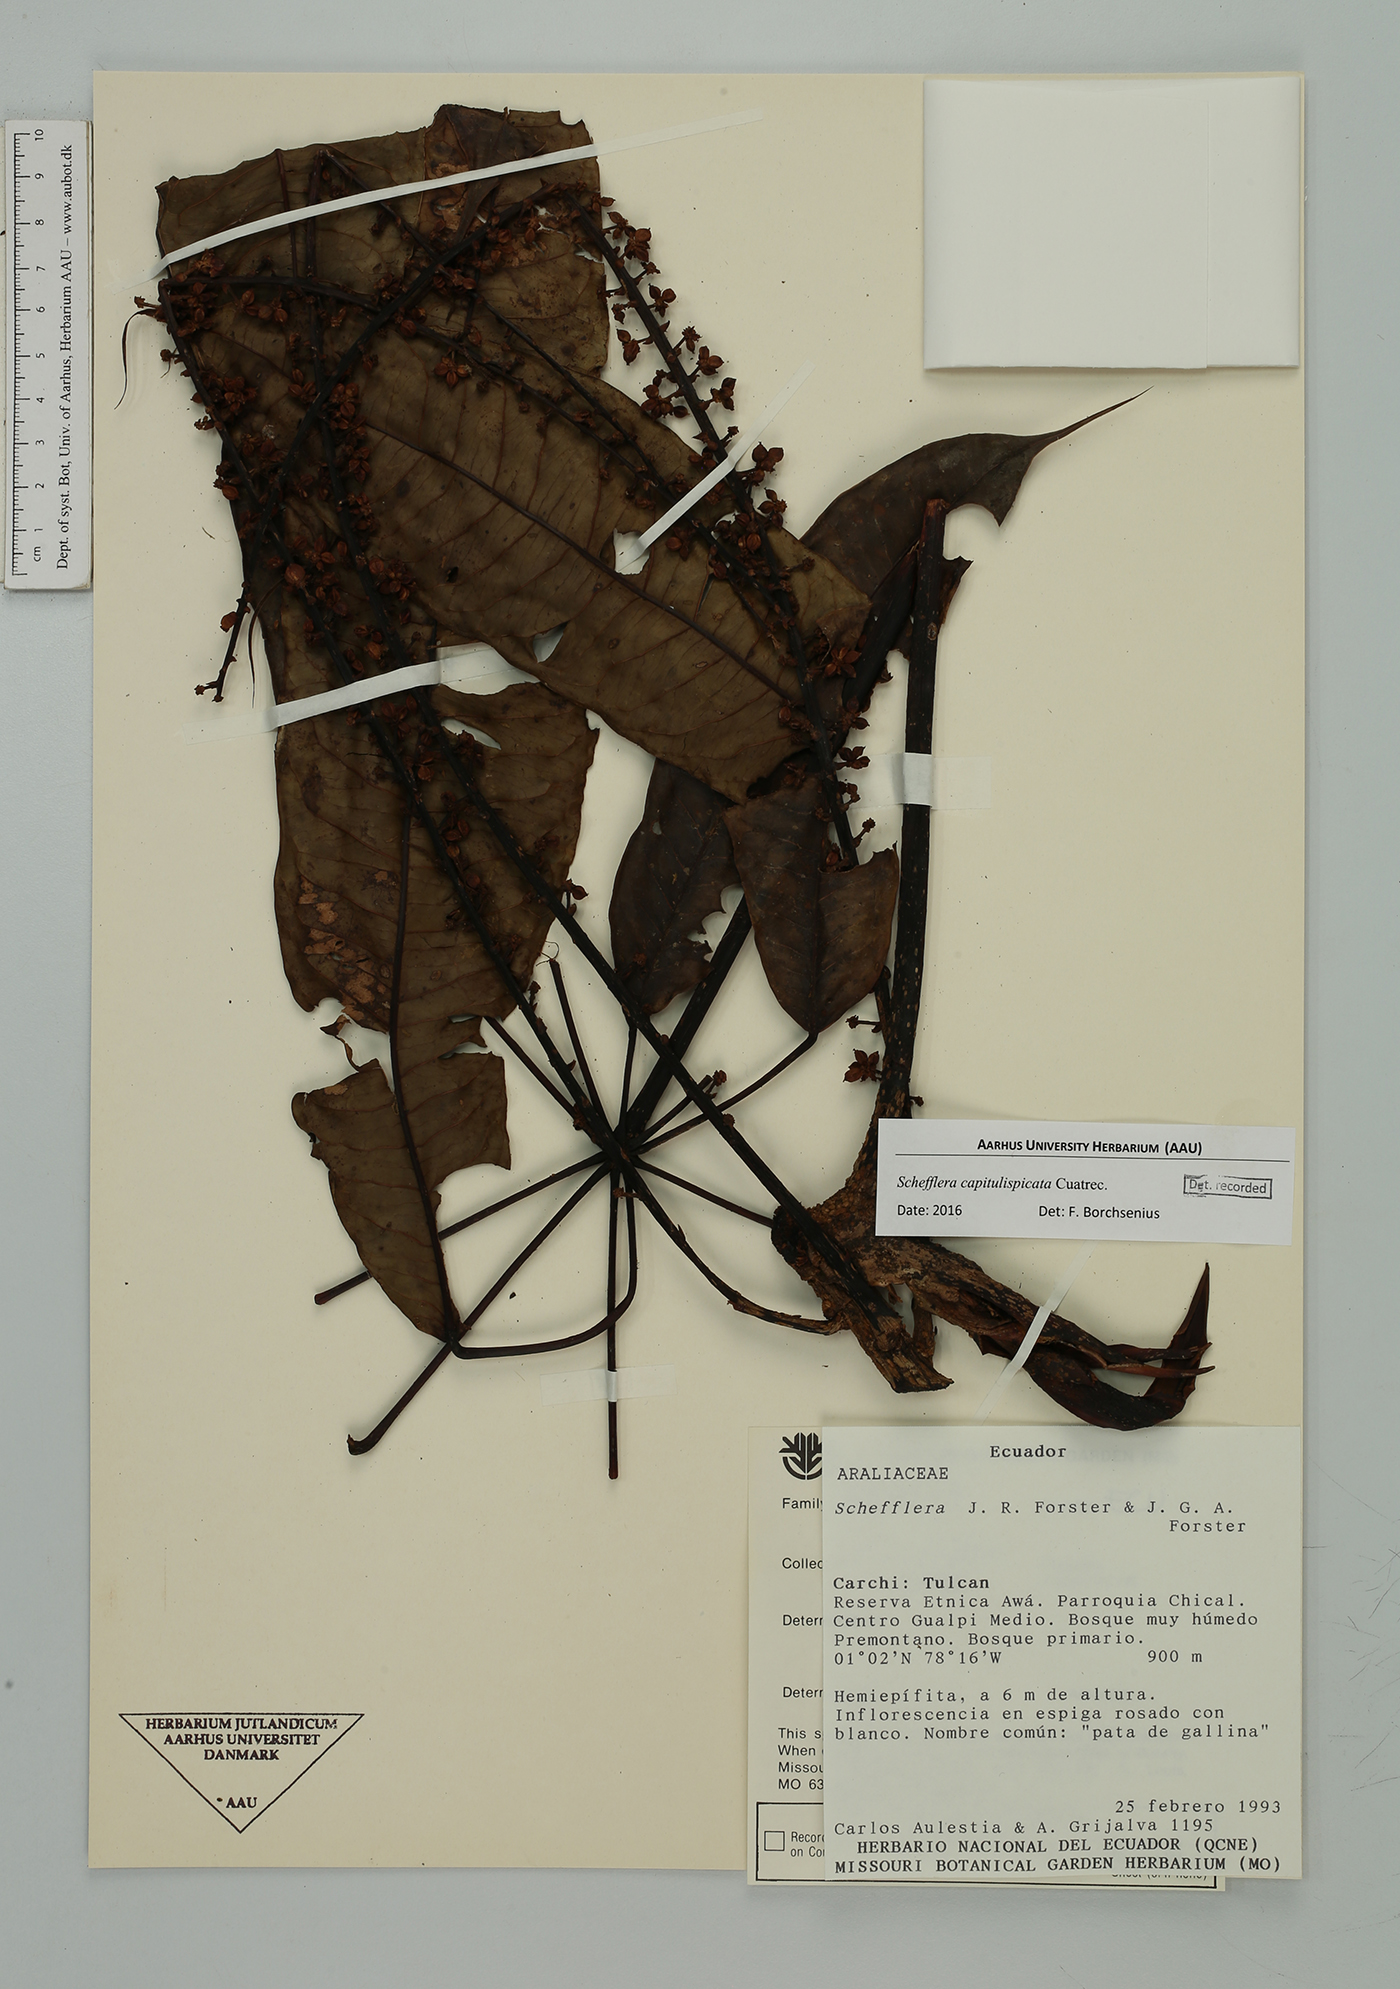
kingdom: Plantae
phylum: Tracheophyta
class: Magnoliopsida
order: Apiales
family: Araliaceae
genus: Sciodaphyllum
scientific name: Sciodaphyllum
